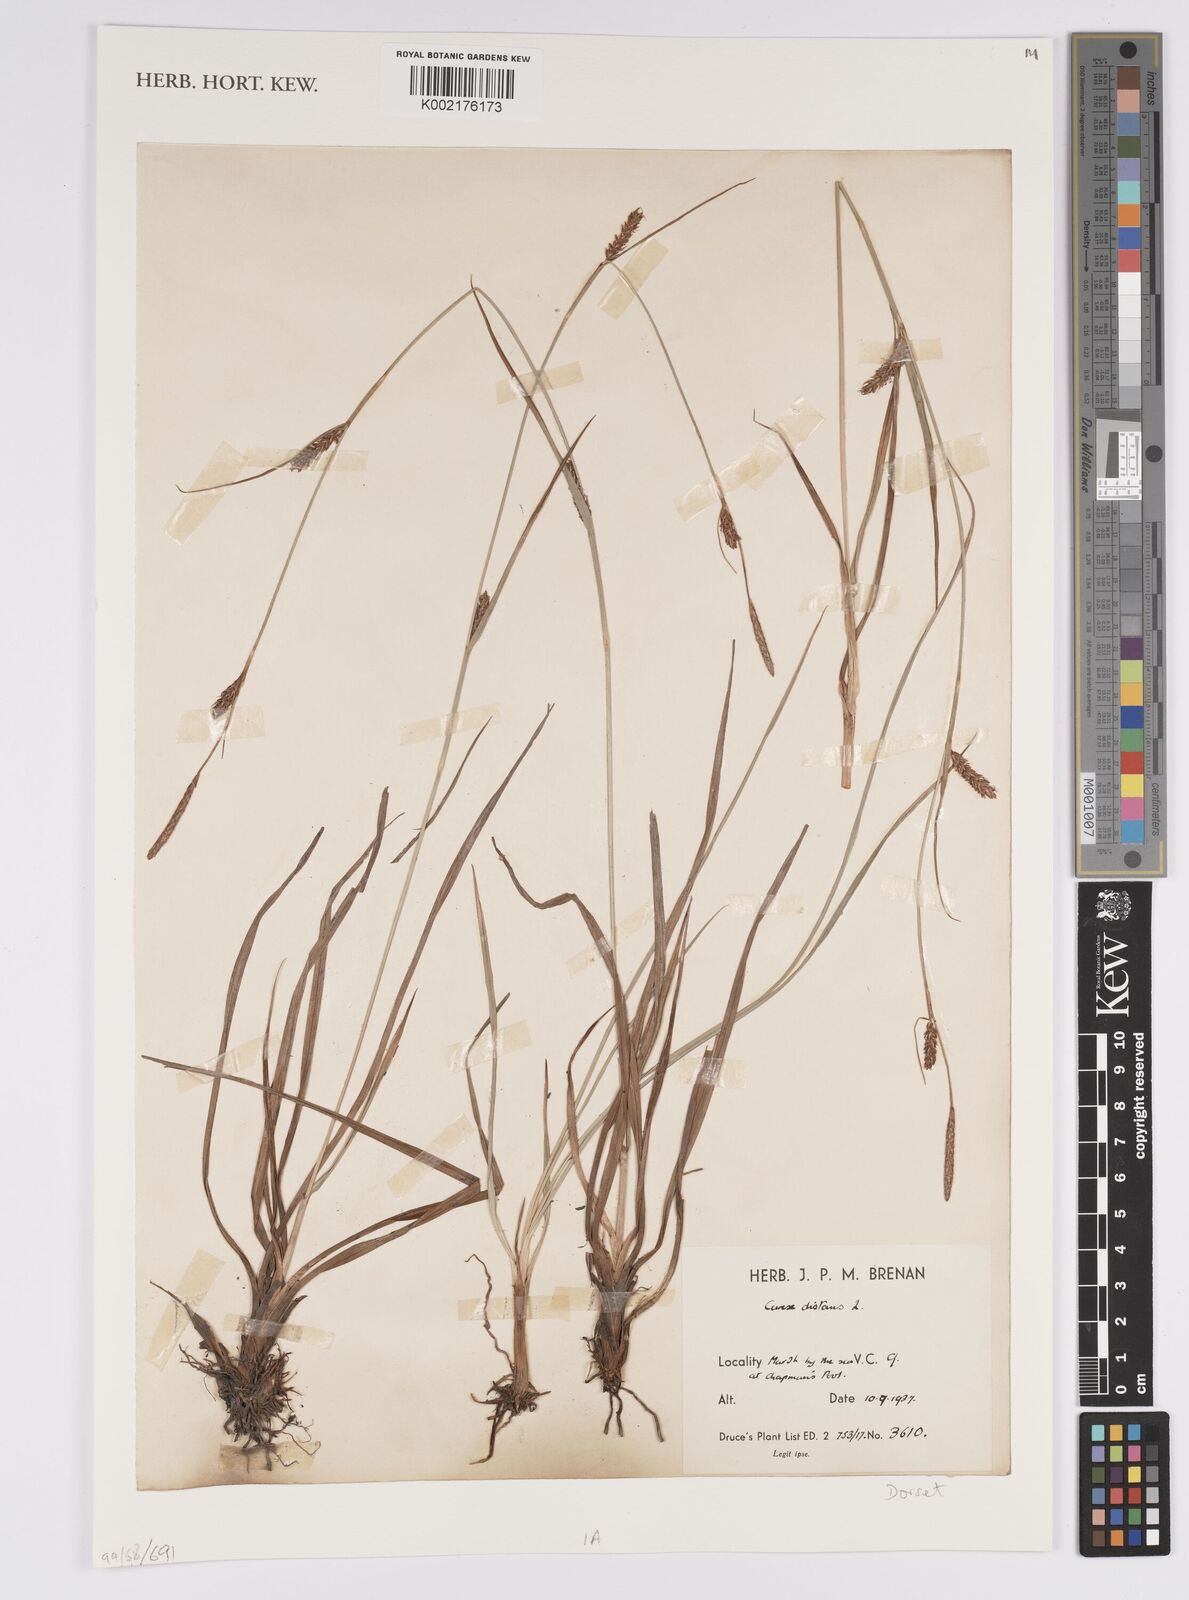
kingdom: Plantae
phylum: Tracheophyta
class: Liliopsida
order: Poales
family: Cyperaceae
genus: Carex
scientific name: Carex distans
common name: Distant sedge
